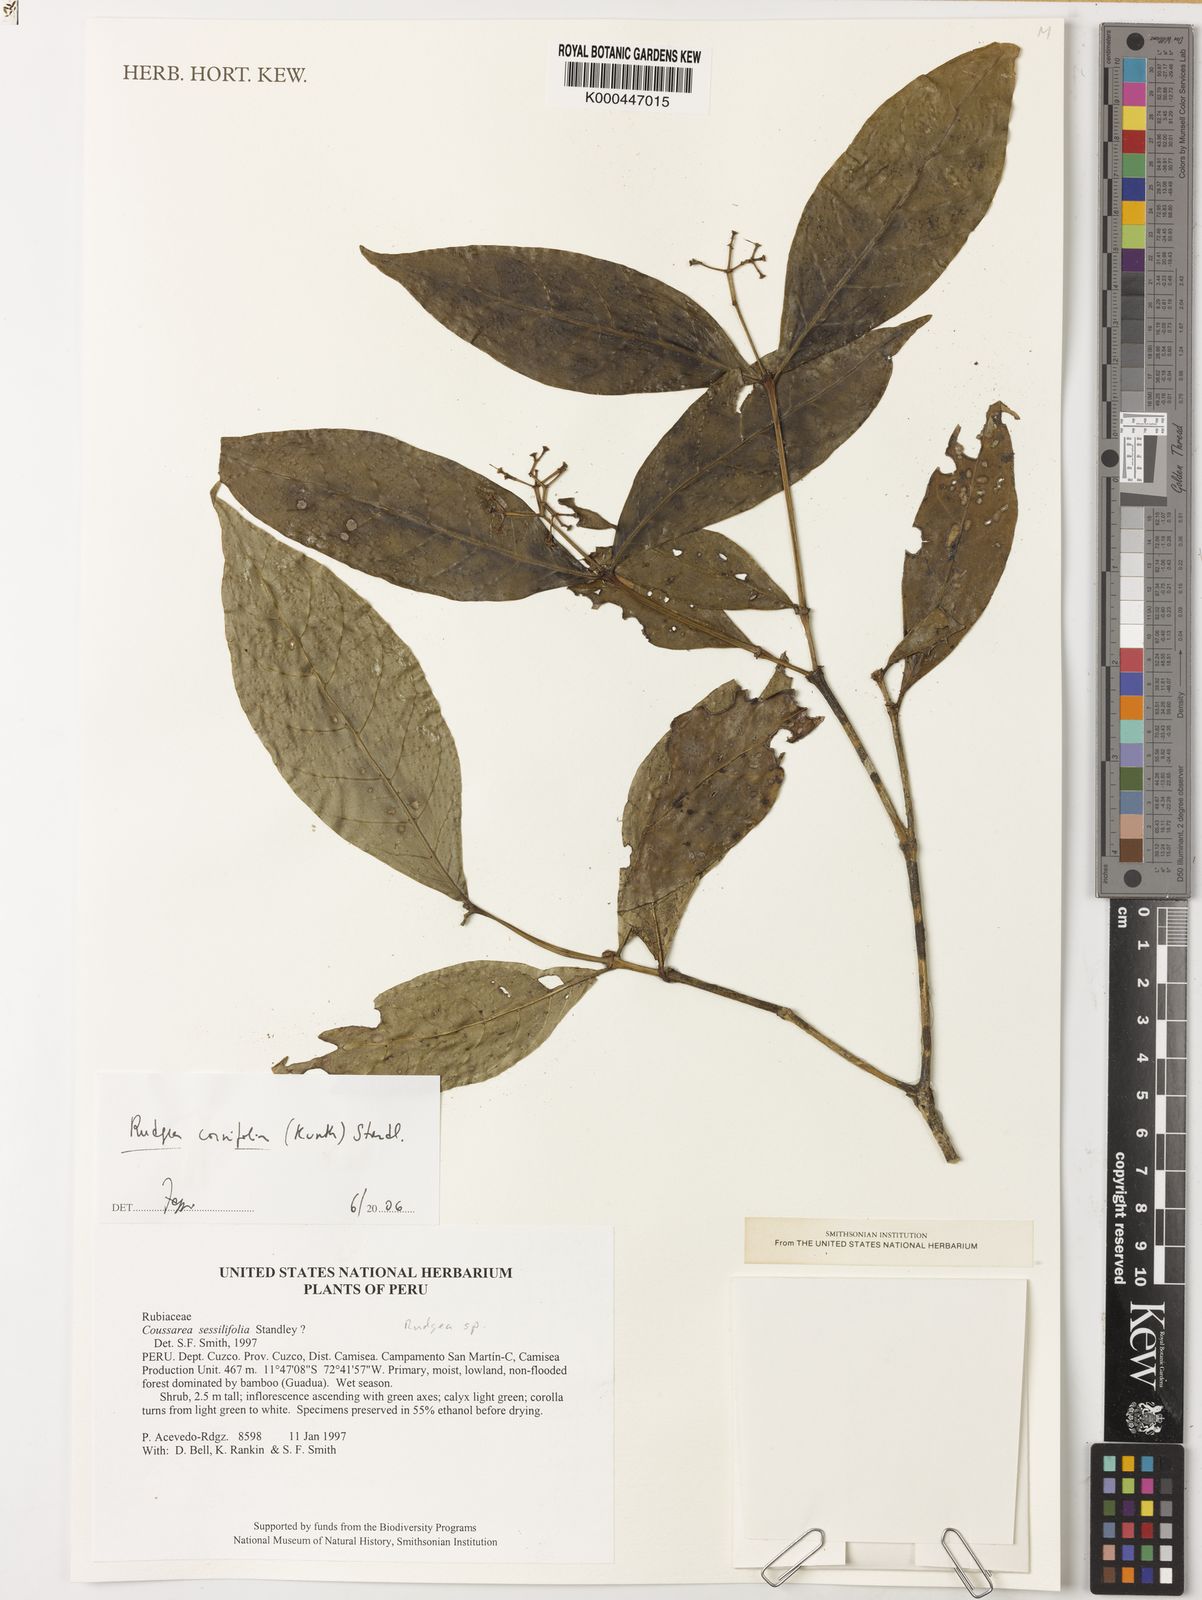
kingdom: Plantae
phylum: Tracheophyta
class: Magnoliopsida
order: Gentianales
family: Rubiaceae
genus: Rudgea
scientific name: Rudgea cornifolia
